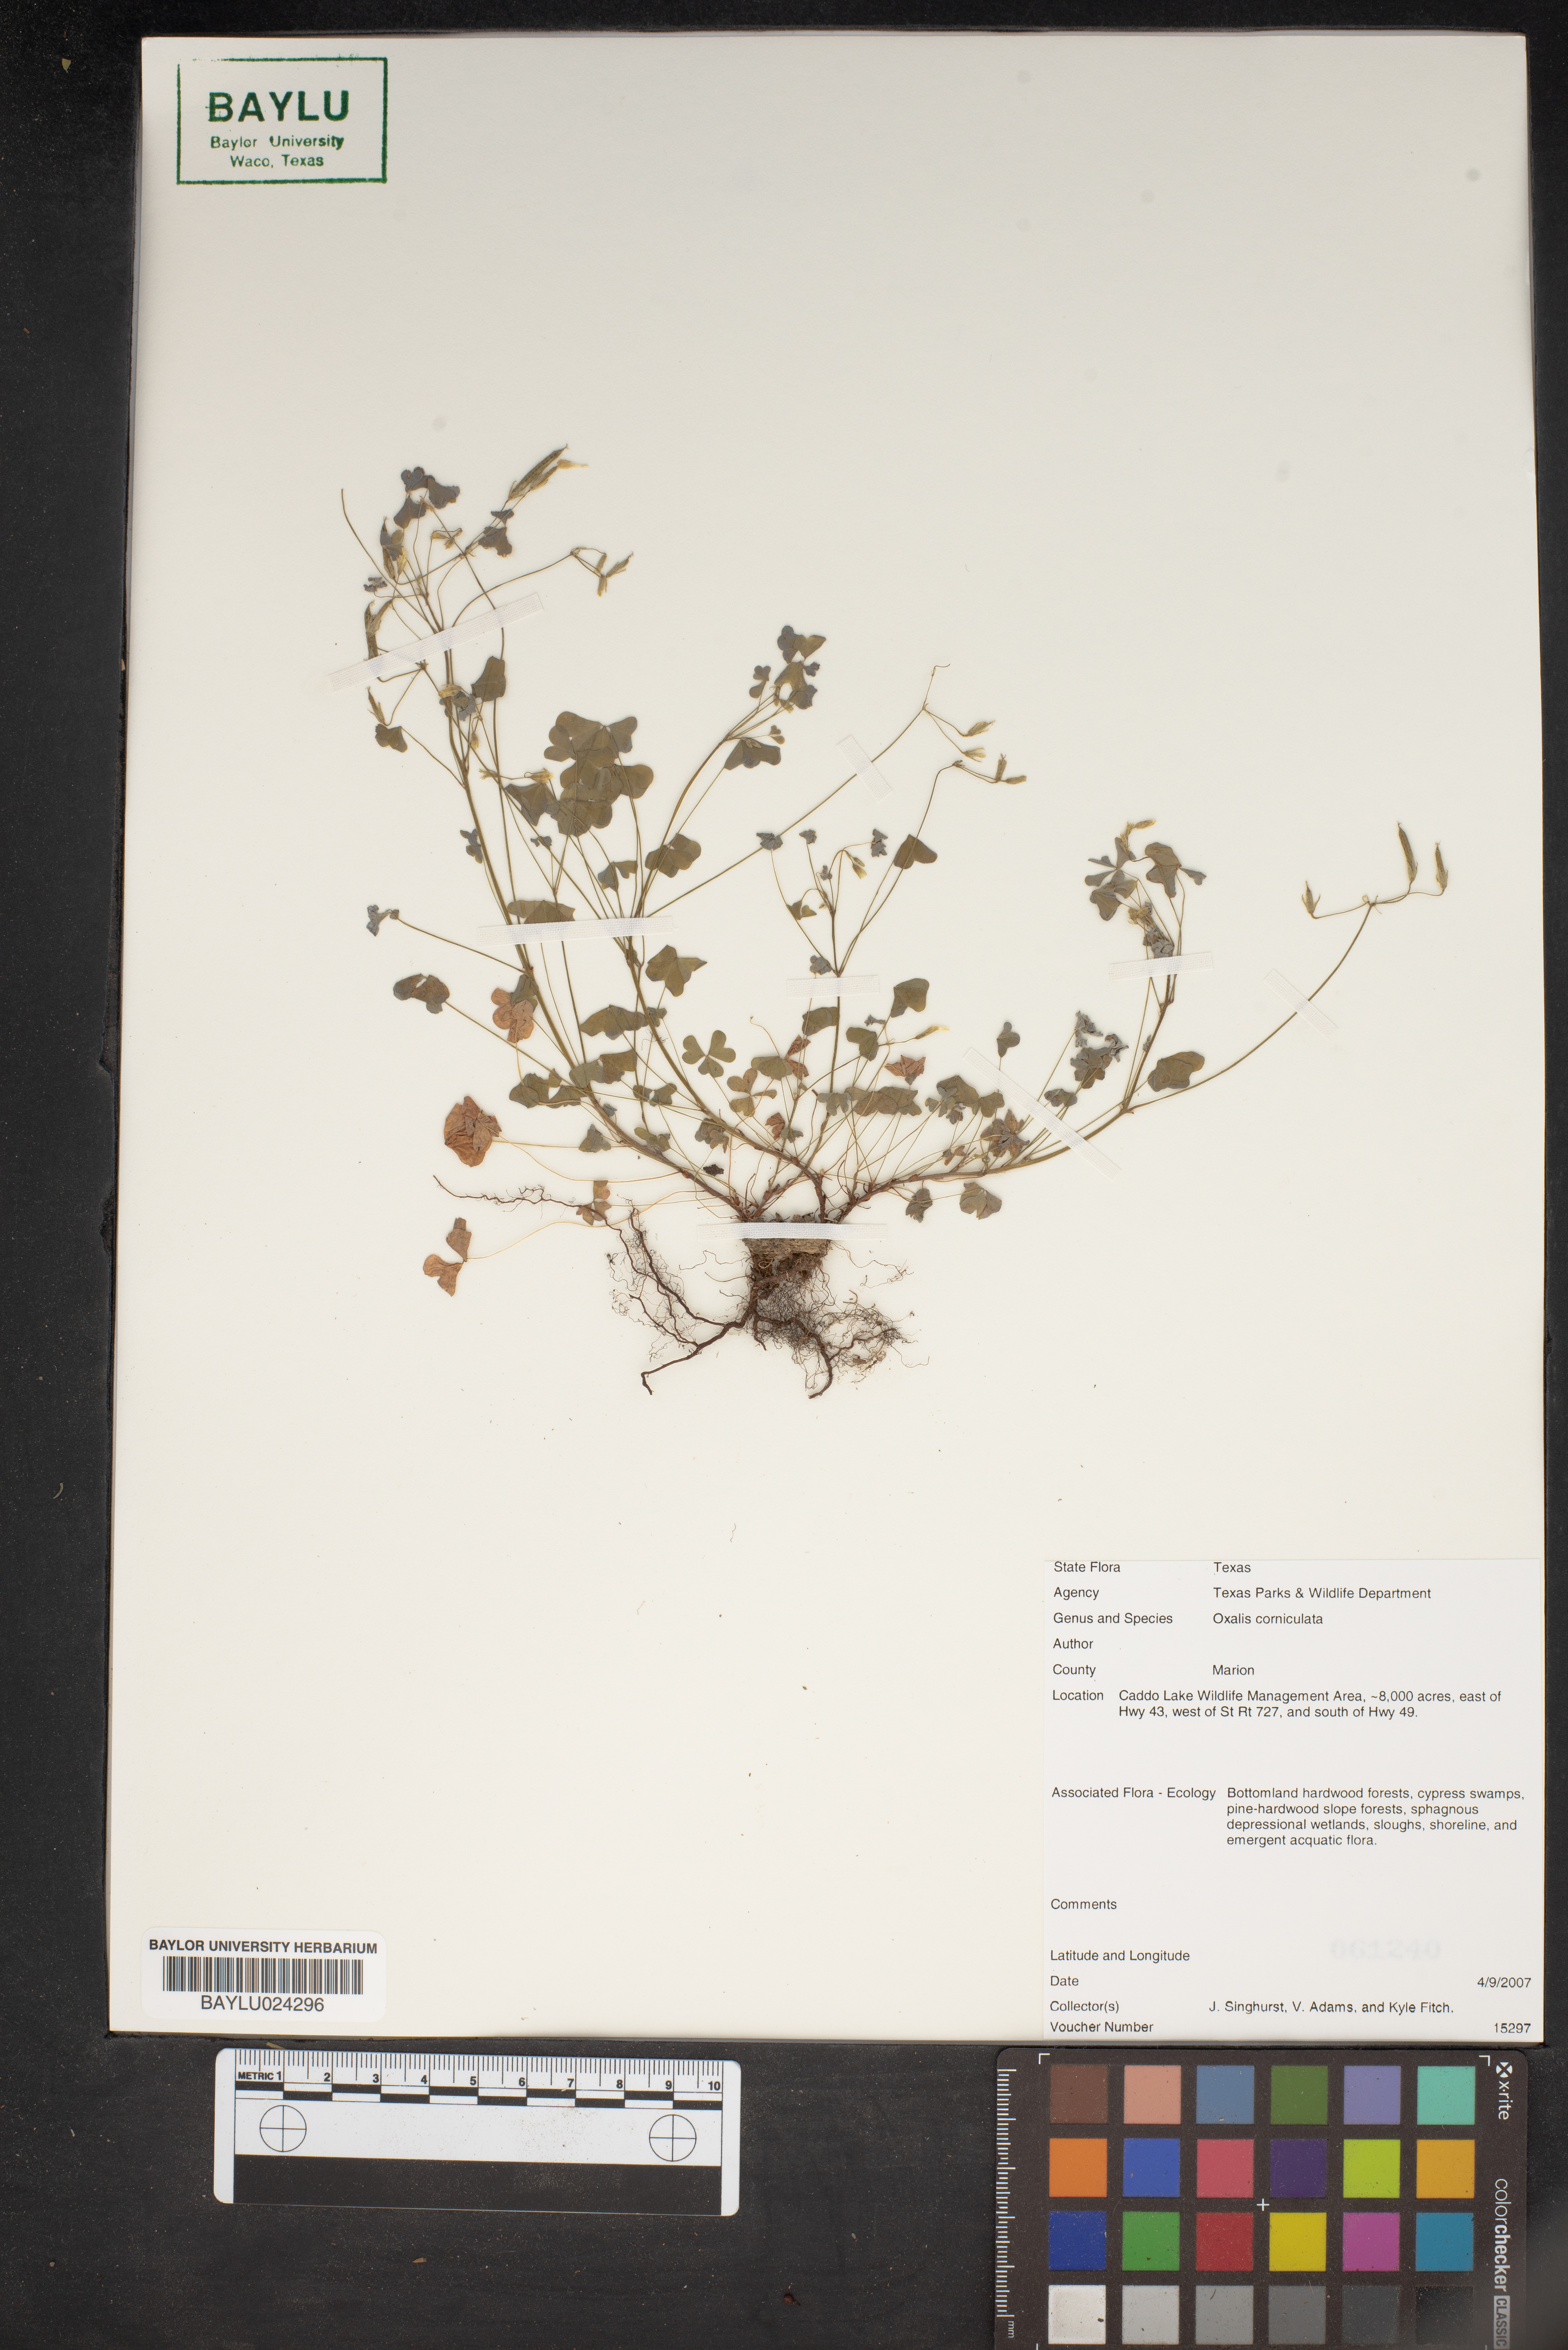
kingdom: Plantae
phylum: Tracheophyta
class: Magnoliopsida
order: Oxalidales
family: Oxalidaceae
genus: Oxalis
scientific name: Oxalis corniculata
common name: Procumbent yellow-sorrel
